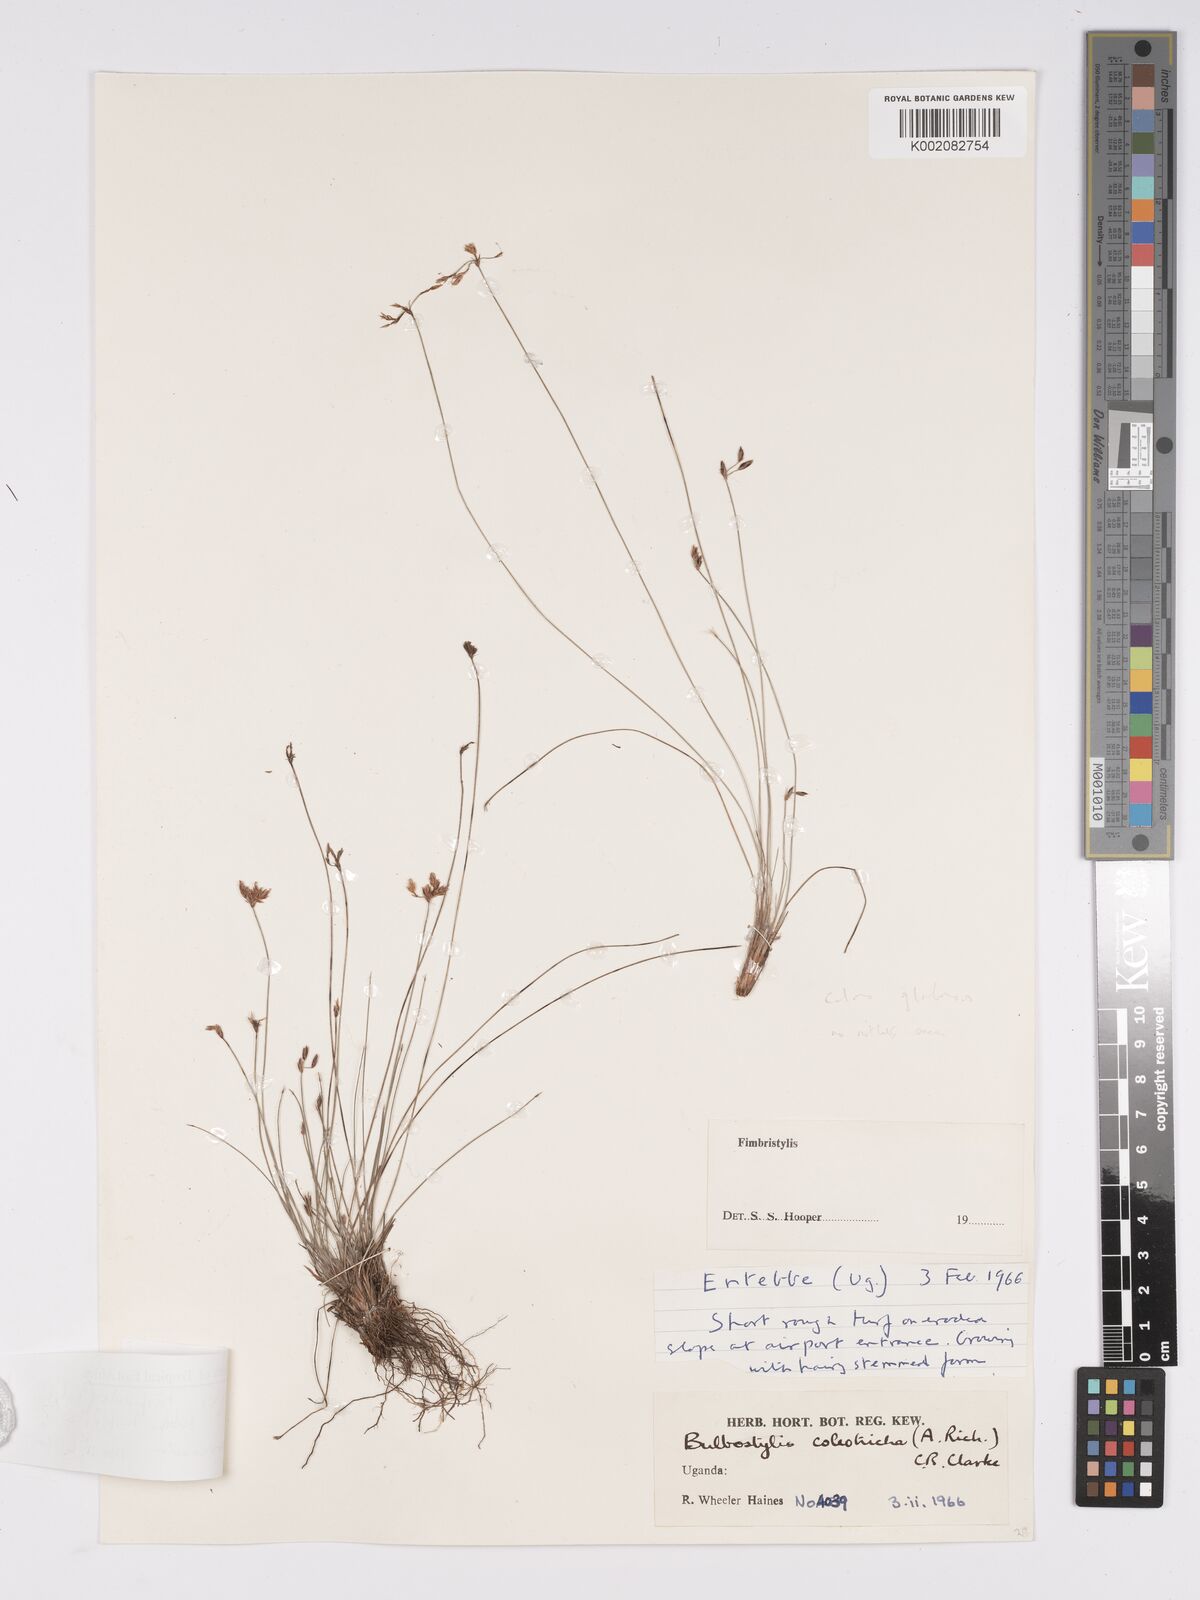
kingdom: Plantae
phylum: Tracheophyta
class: Liliopsida
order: Poales
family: Cyperaceae
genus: Bulbostylis
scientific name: Bulbostylis hispidula
